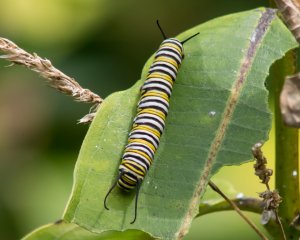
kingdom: Animalia
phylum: Arthropoda
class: Insecta
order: Lepidoptera
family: Nymphalidae
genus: Danaus
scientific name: Danaus plexippus
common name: Monarch
